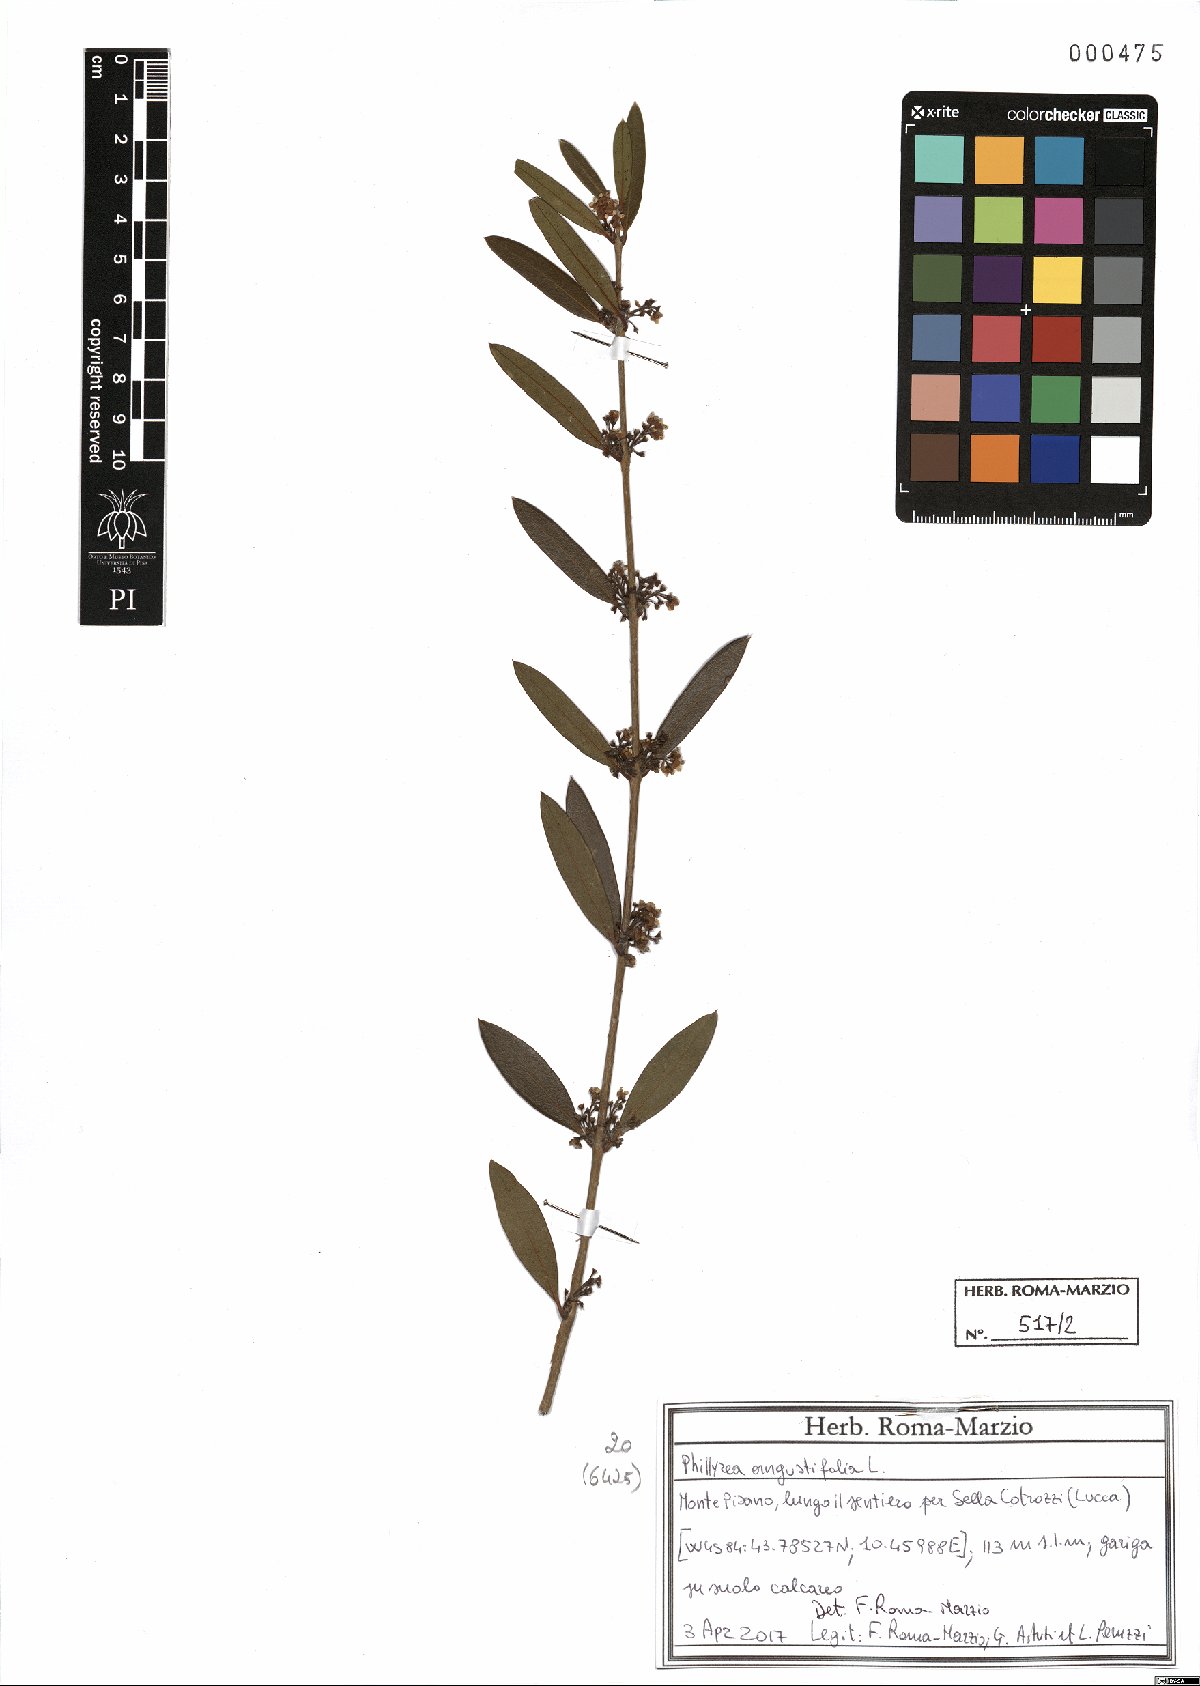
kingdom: Plantae
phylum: Tracheophyta
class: Magnoliopsida
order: Lamiales
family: Oleaceae
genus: Phillyrea
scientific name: Phillyrea angustifolia
